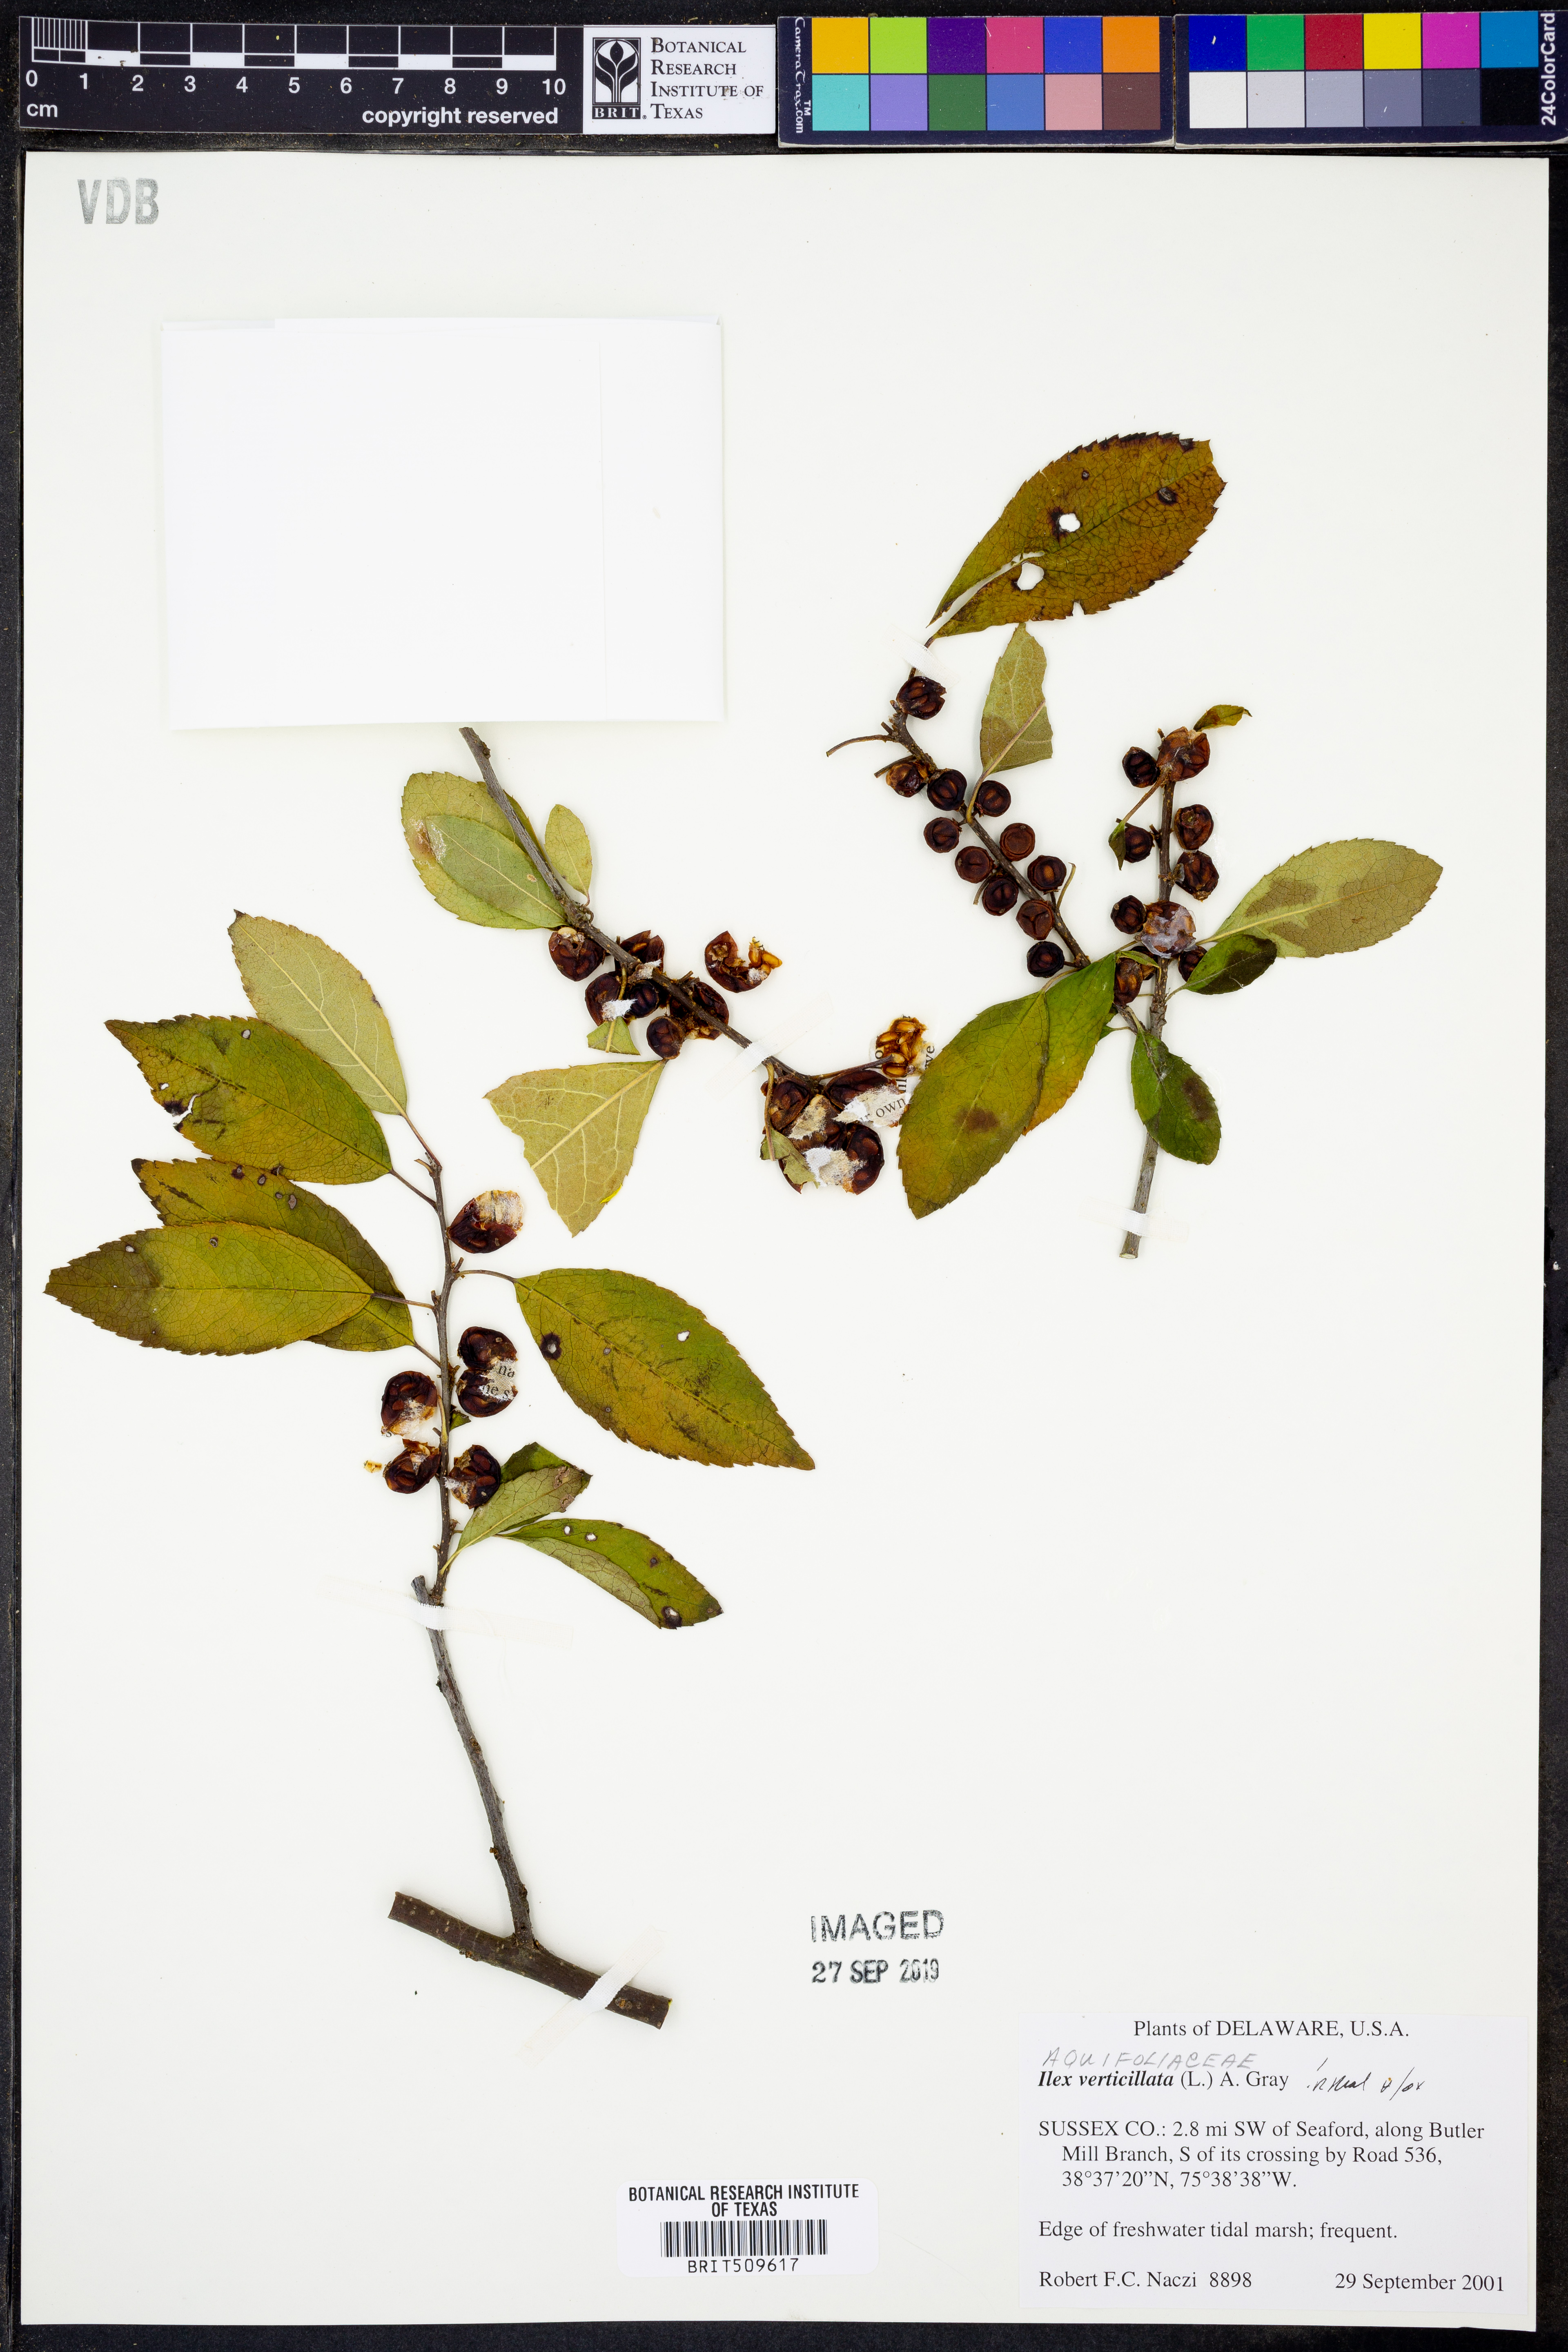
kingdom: Plantae
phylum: Tracheophyta
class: Magnoliopsida
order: Aquifoliales
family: Aquifoliaceae
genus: Ilex
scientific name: Ilex verticillata
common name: Virginia winterberry
